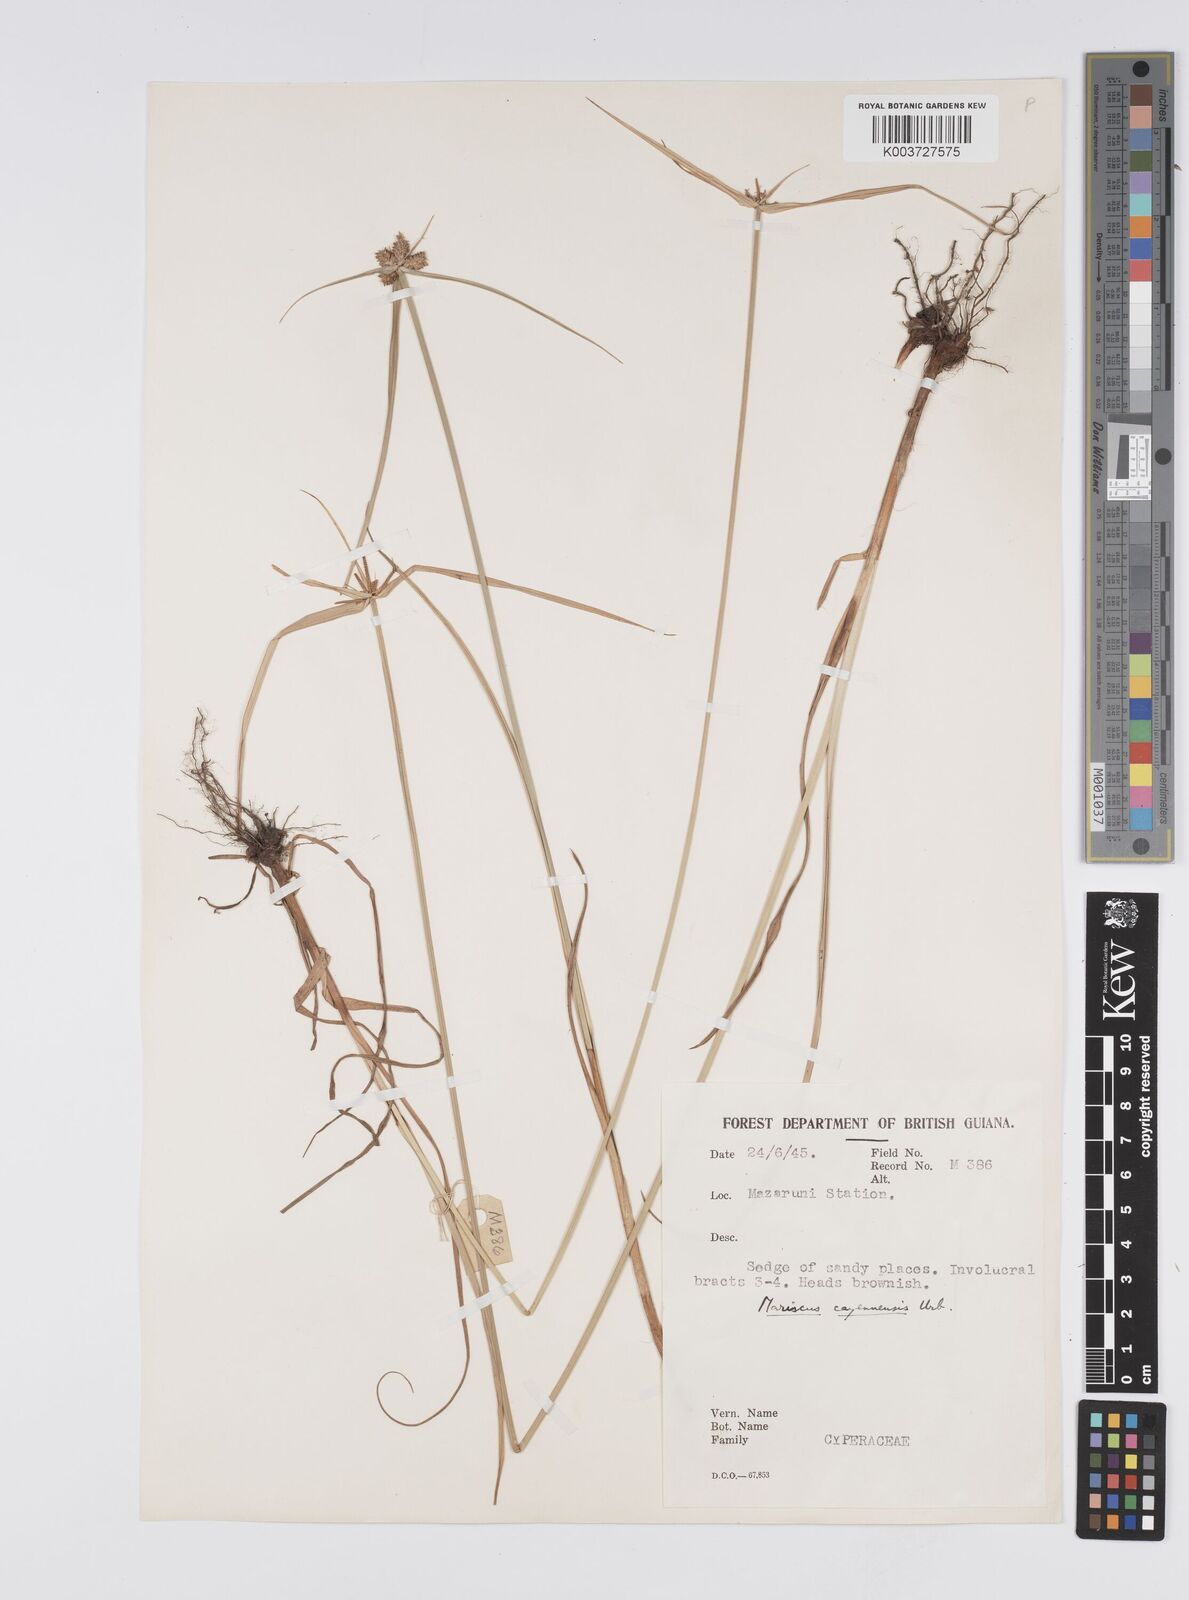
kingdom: Plantae
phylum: Tracheophyta
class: Liliopsida
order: Poales
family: Cyperaceae
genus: Cyperus
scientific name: Cyperus aggregatus
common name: Inflatedscale flatsedge
